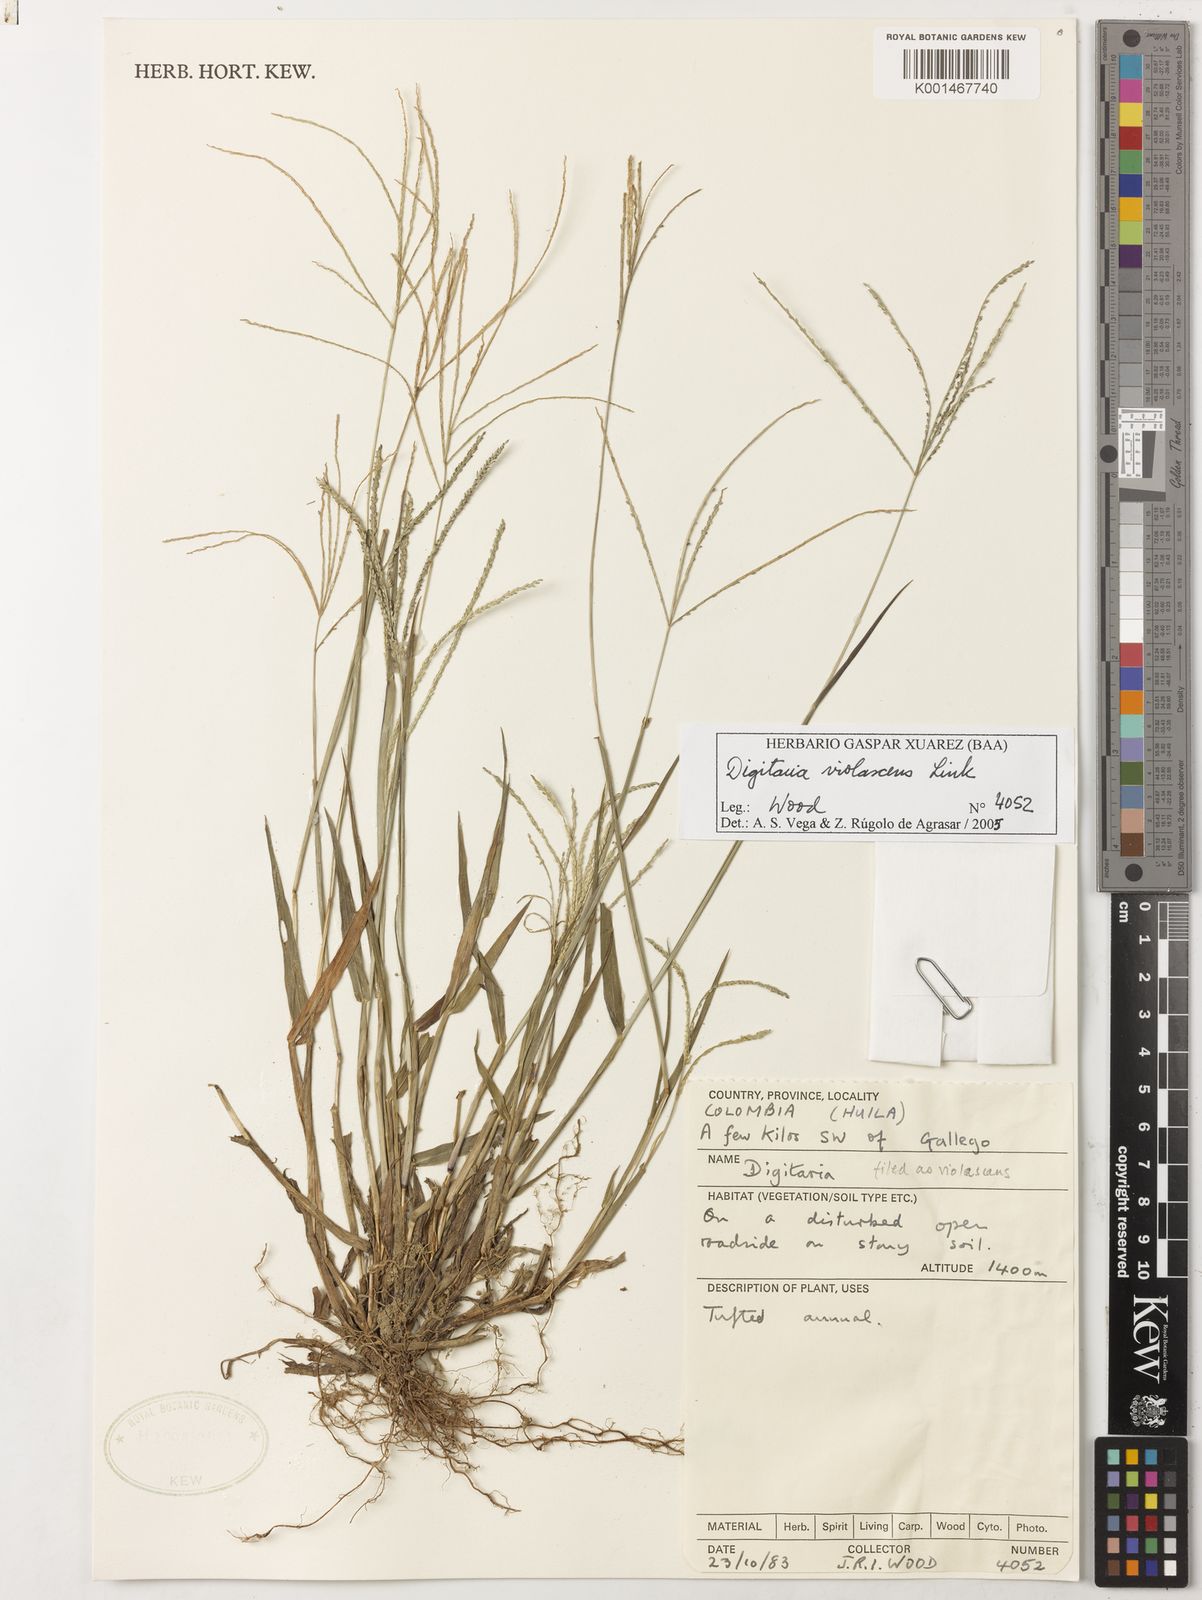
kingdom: Plantae
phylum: Tracheophyta
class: Liliopsida
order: Poales
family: Poaceae
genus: Digitaria
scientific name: Digitaria violascens
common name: Violet crabgrass
